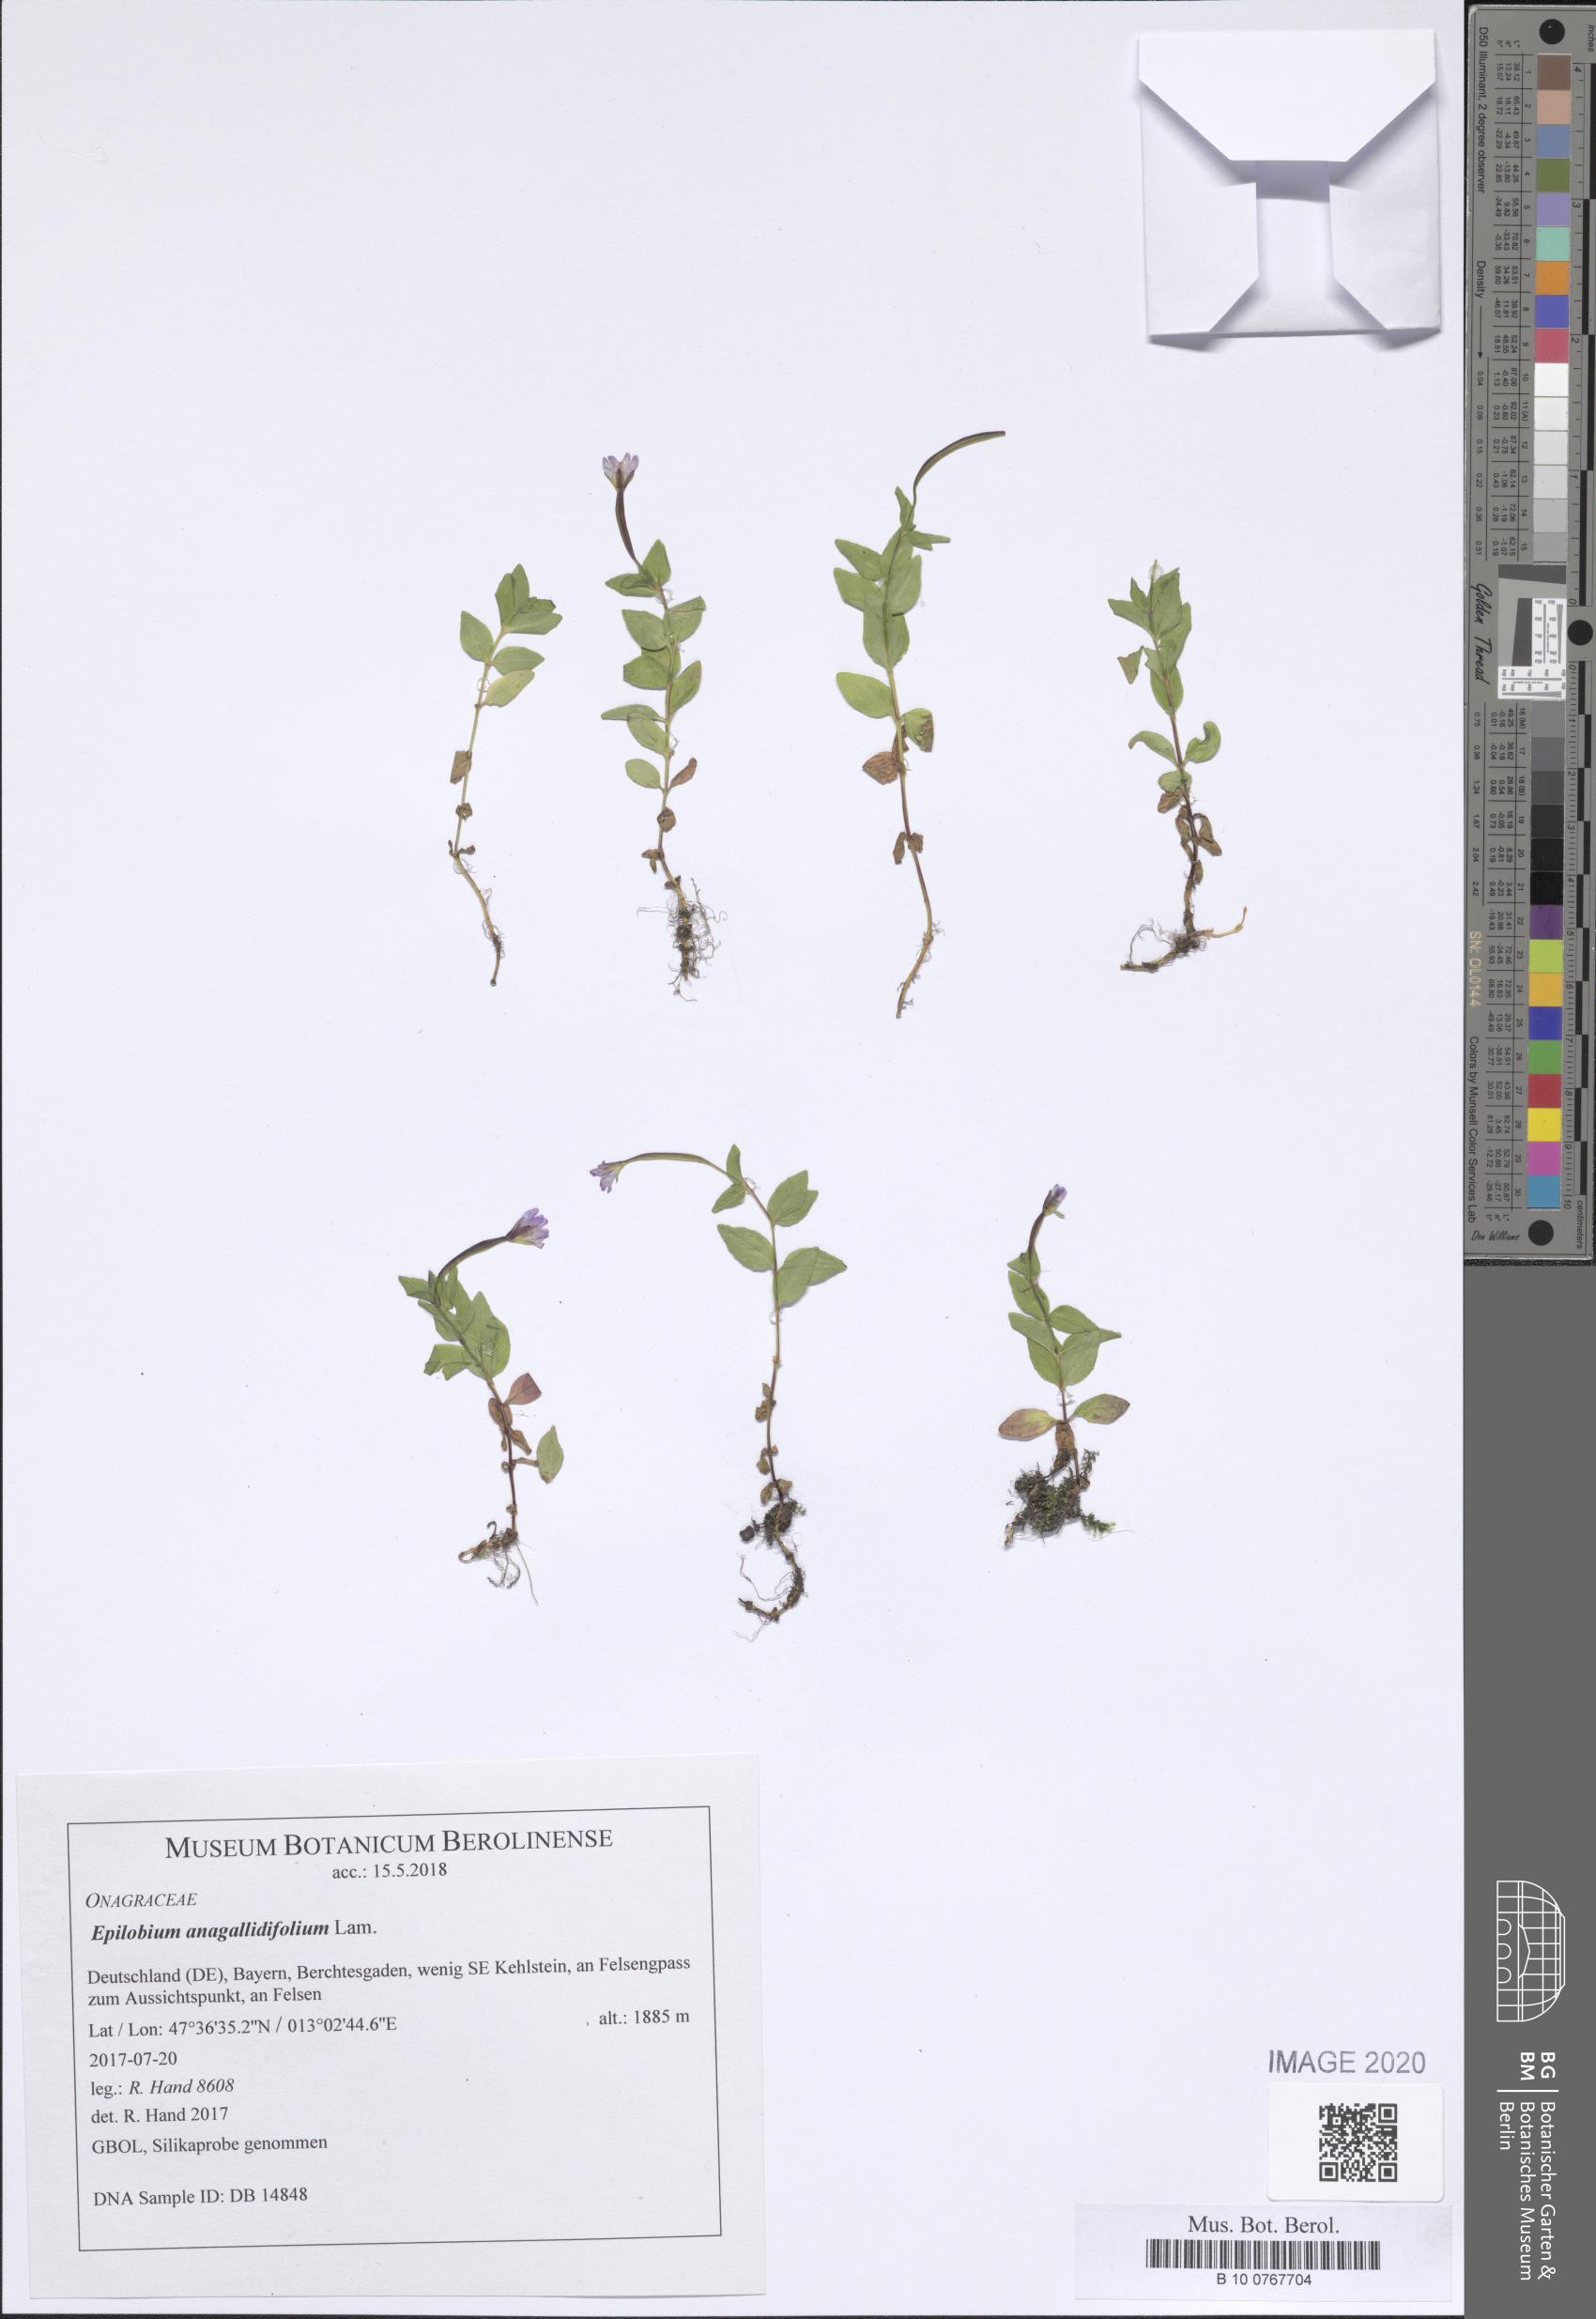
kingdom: Plantae
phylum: Tracheophyta
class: Magnoliopsida
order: Myrtales
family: Onagraceae
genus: Epilobium
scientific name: Epilobium anagallidifolium
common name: Alpine willowherb
